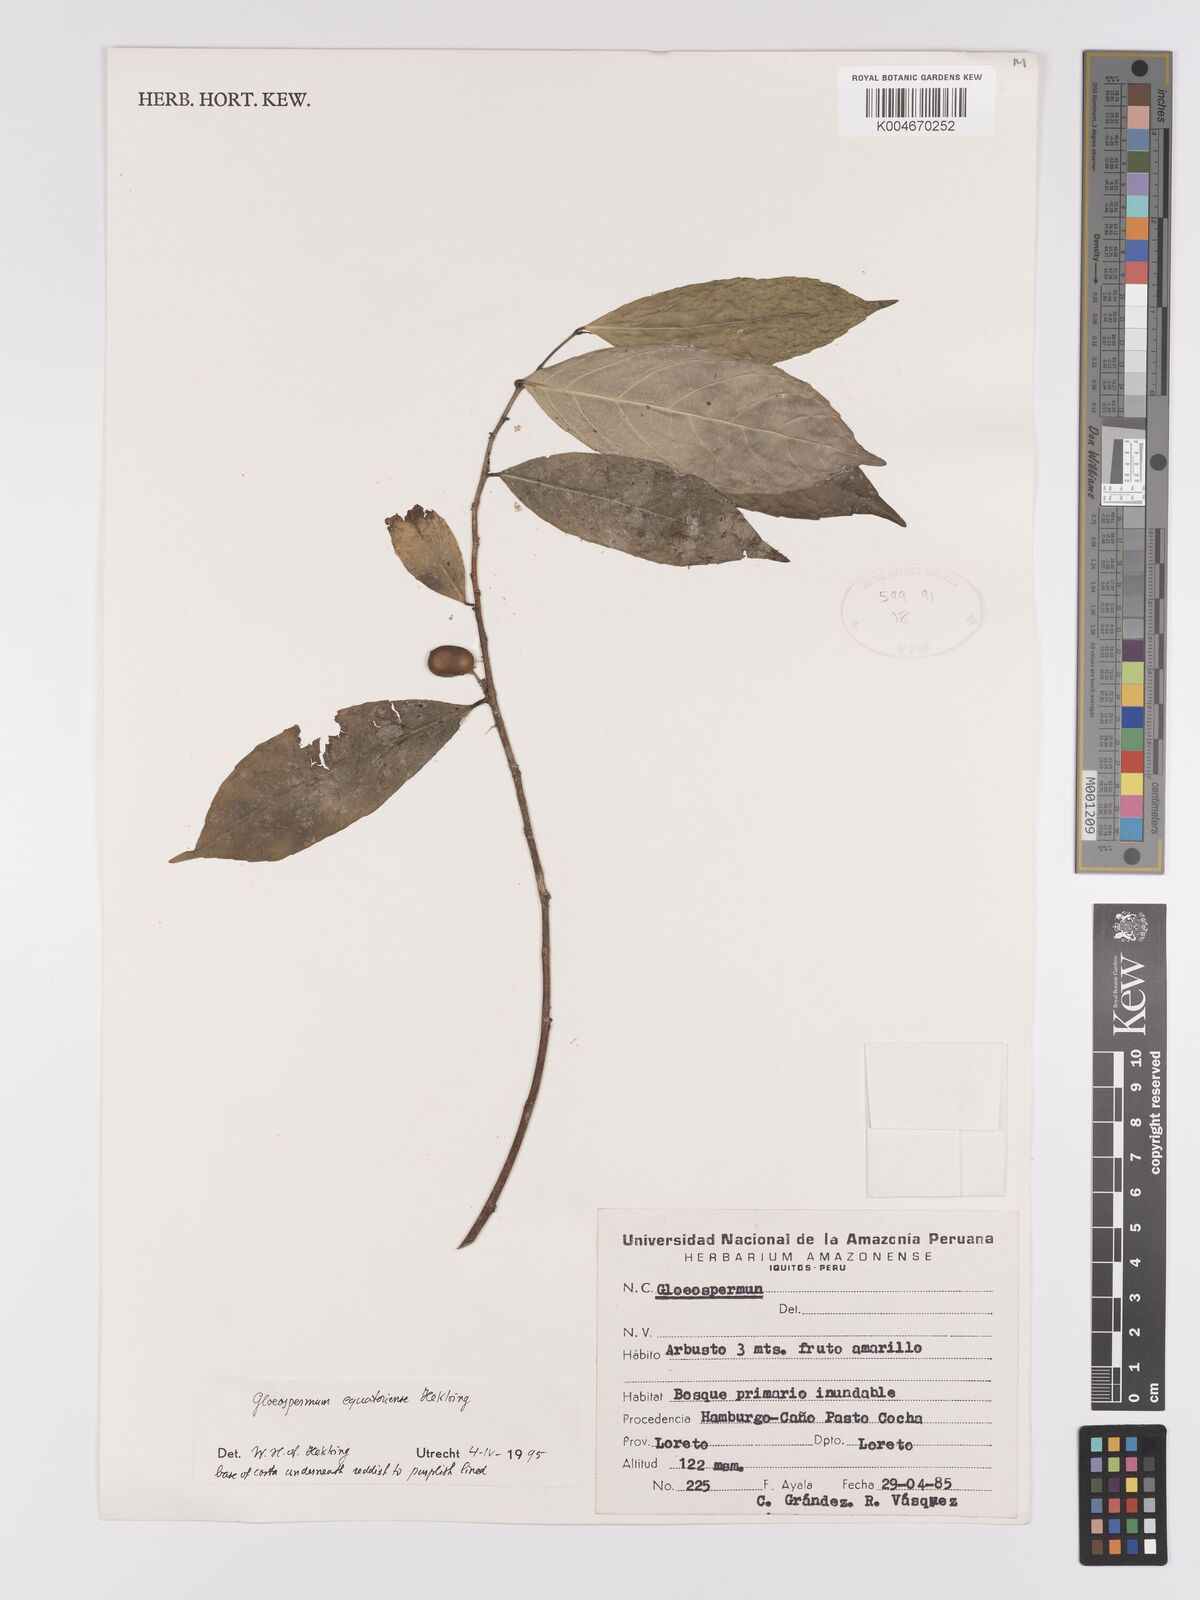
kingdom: Plantae
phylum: Tracheophyta
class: Magnoliopsida
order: Malpighiales
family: Violaceae
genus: Gloeospermum
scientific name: Gloeospermum equatoriense
